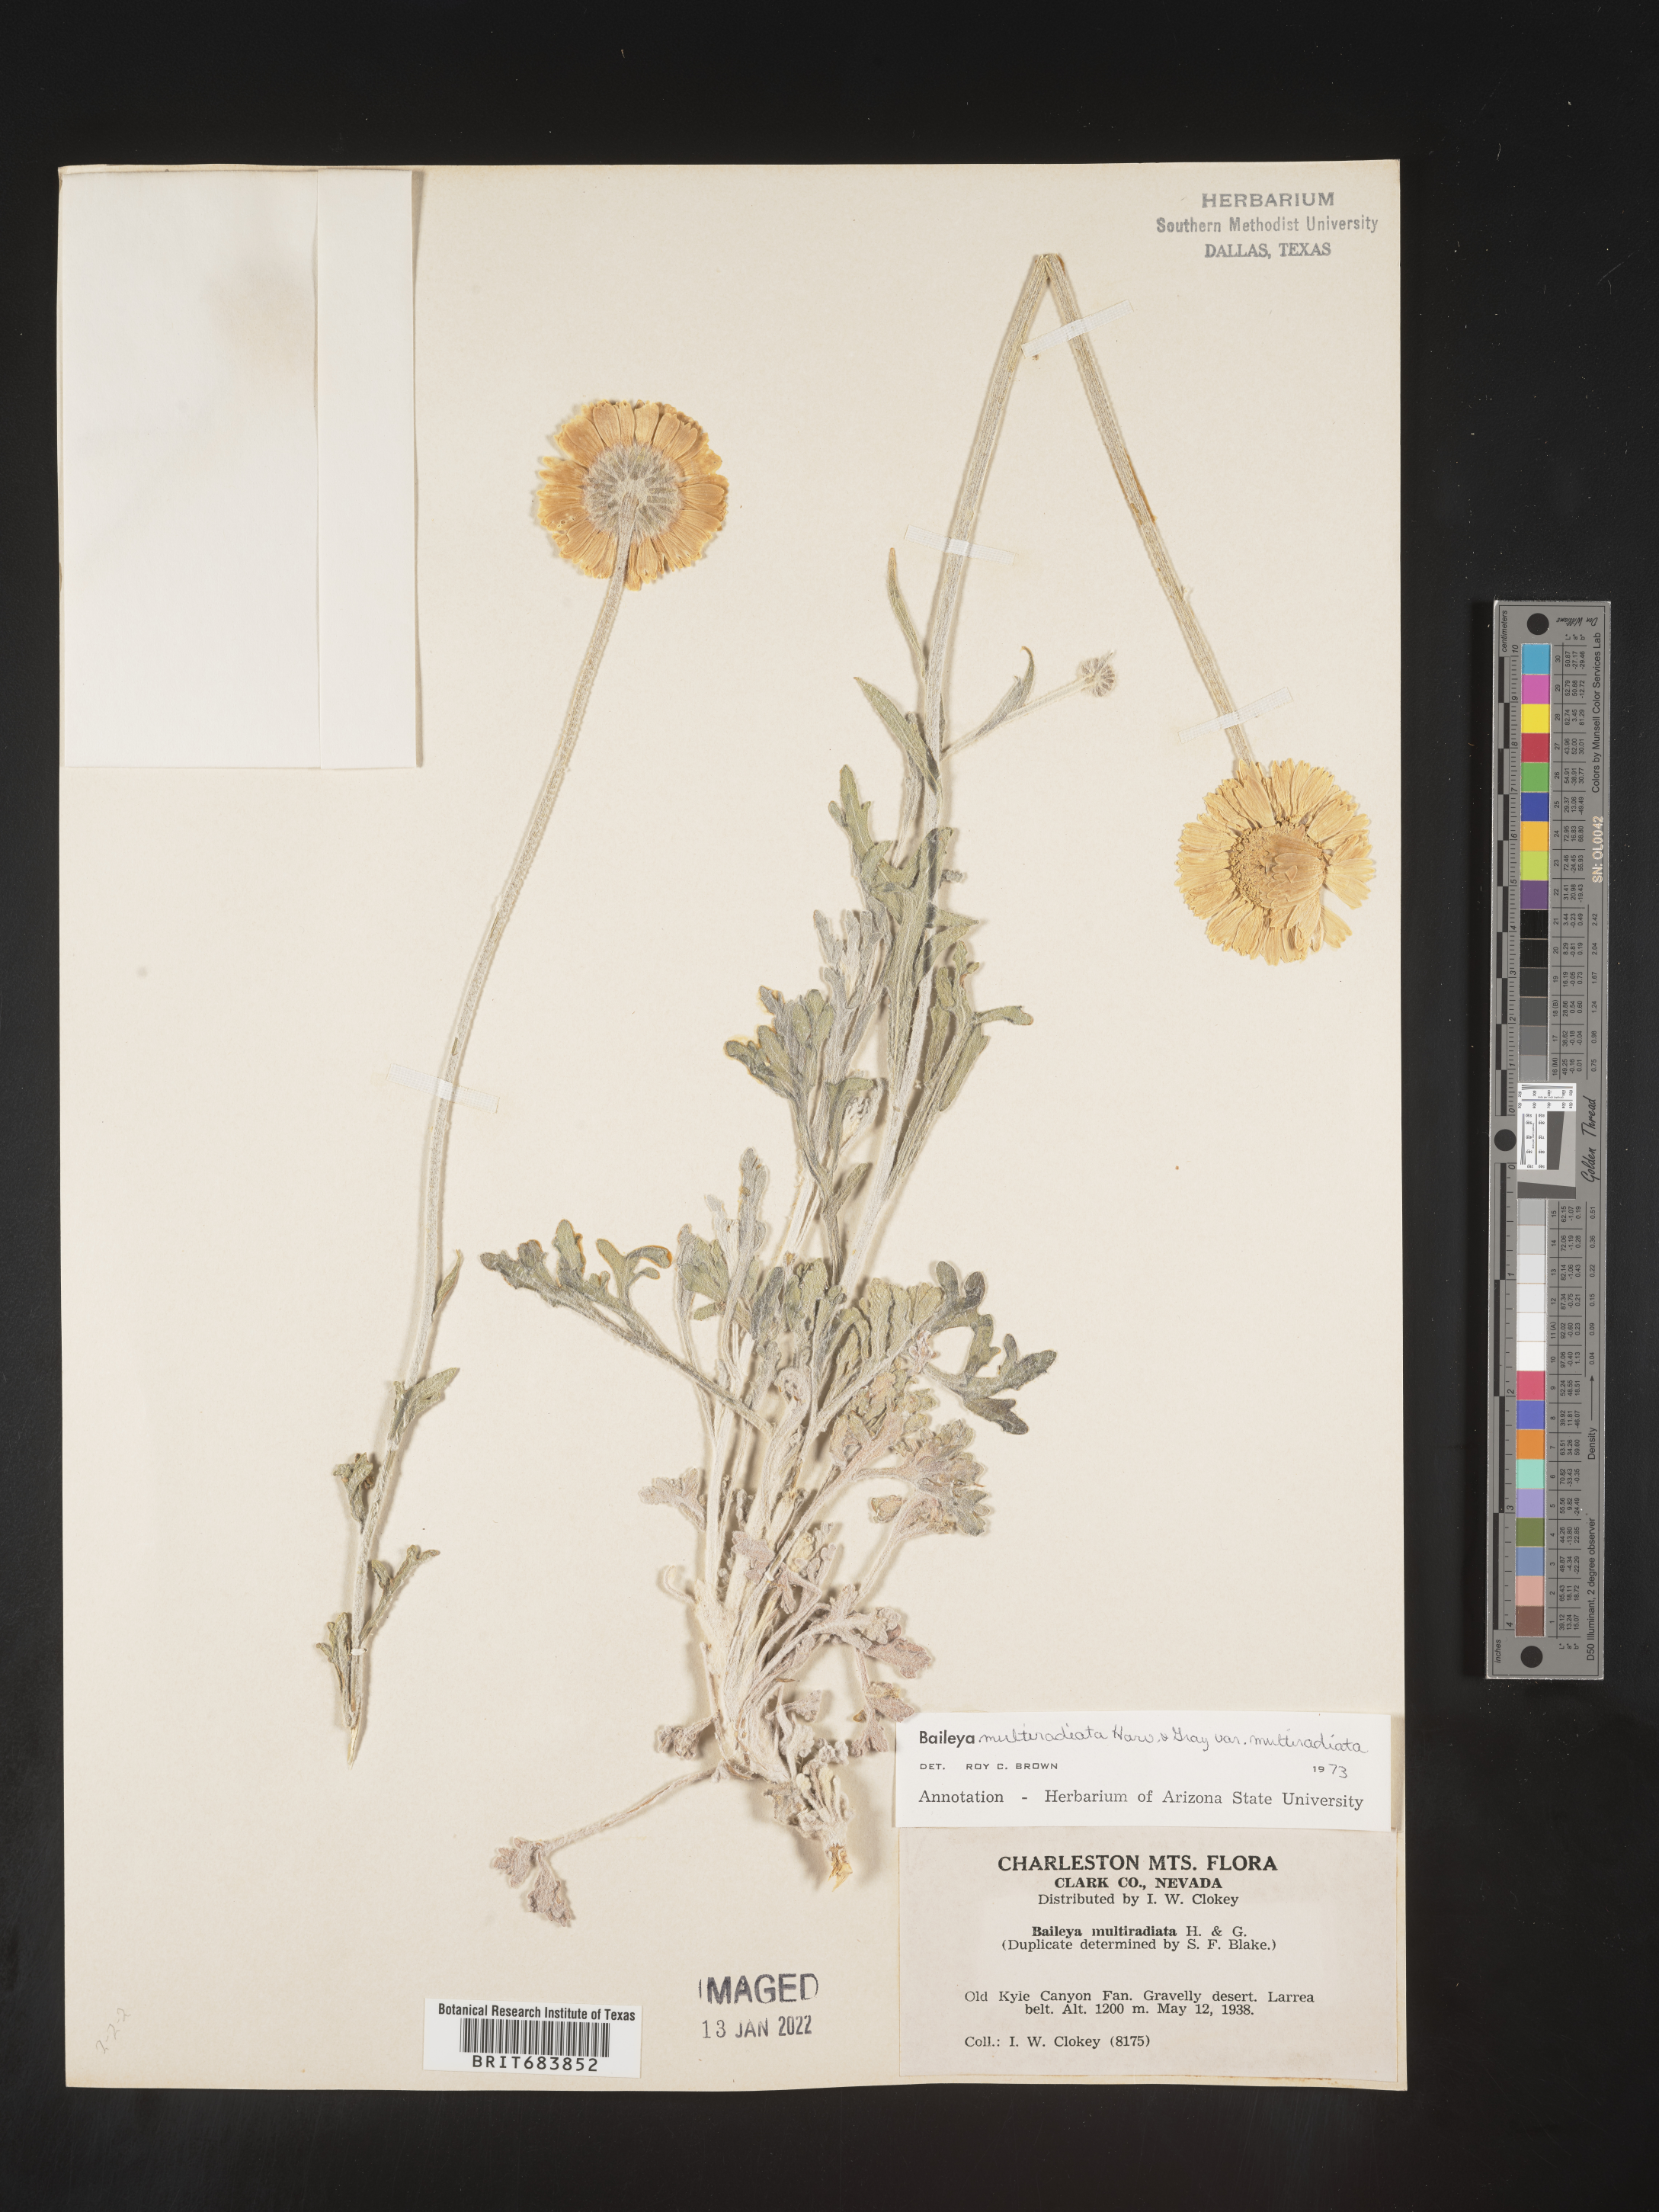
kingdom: Plantae
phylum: Tracheophyta
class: Magnoliopsida
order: Asterales
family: Asteraceae
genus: Baileya
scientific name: Baileya multiradiata
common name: Desert-marigold
